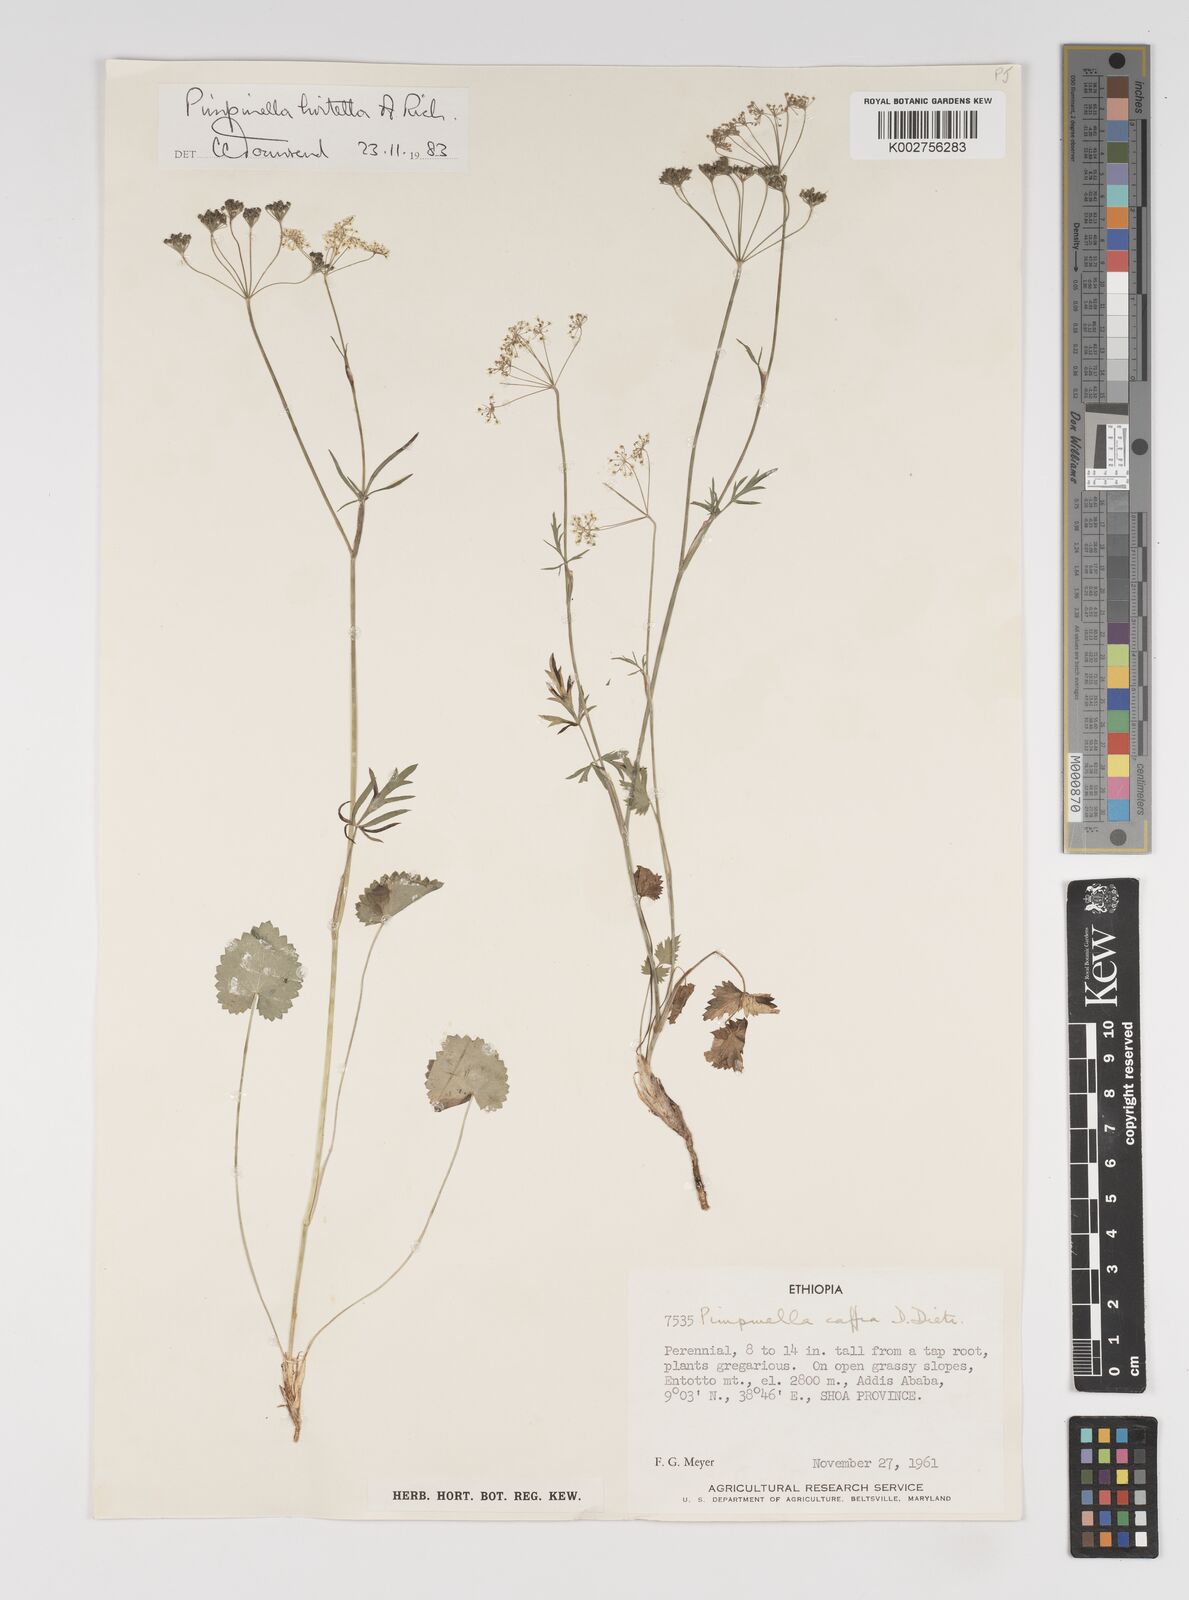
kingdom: Plantae
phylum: Tracheophyta
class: Magnoliopsida
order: Apiales
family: Apiaceae
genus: Pimpinella
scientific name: Pimpinella hirtella
